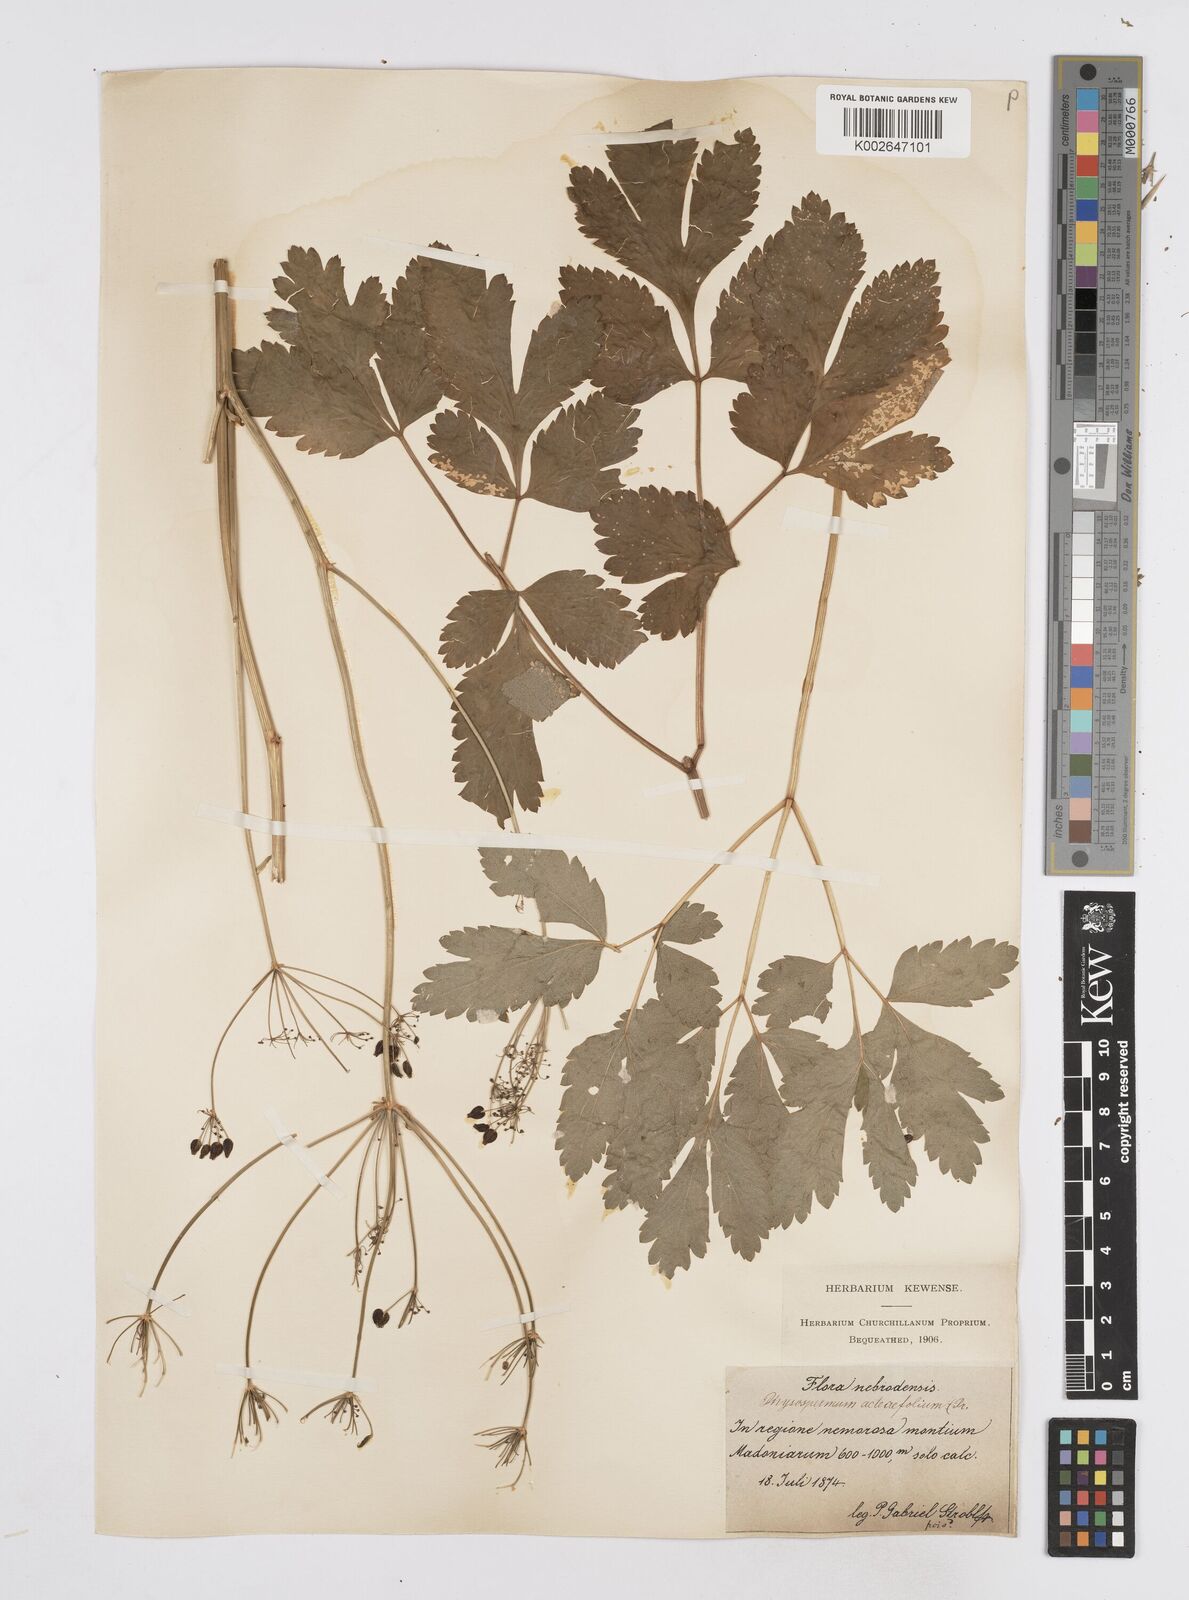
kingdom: Plantae
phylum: Tracheophyta
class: Magnoliopsida
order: Apiales
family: Apiaceae
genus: Physospermum
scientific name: Physospermum verticillatum
